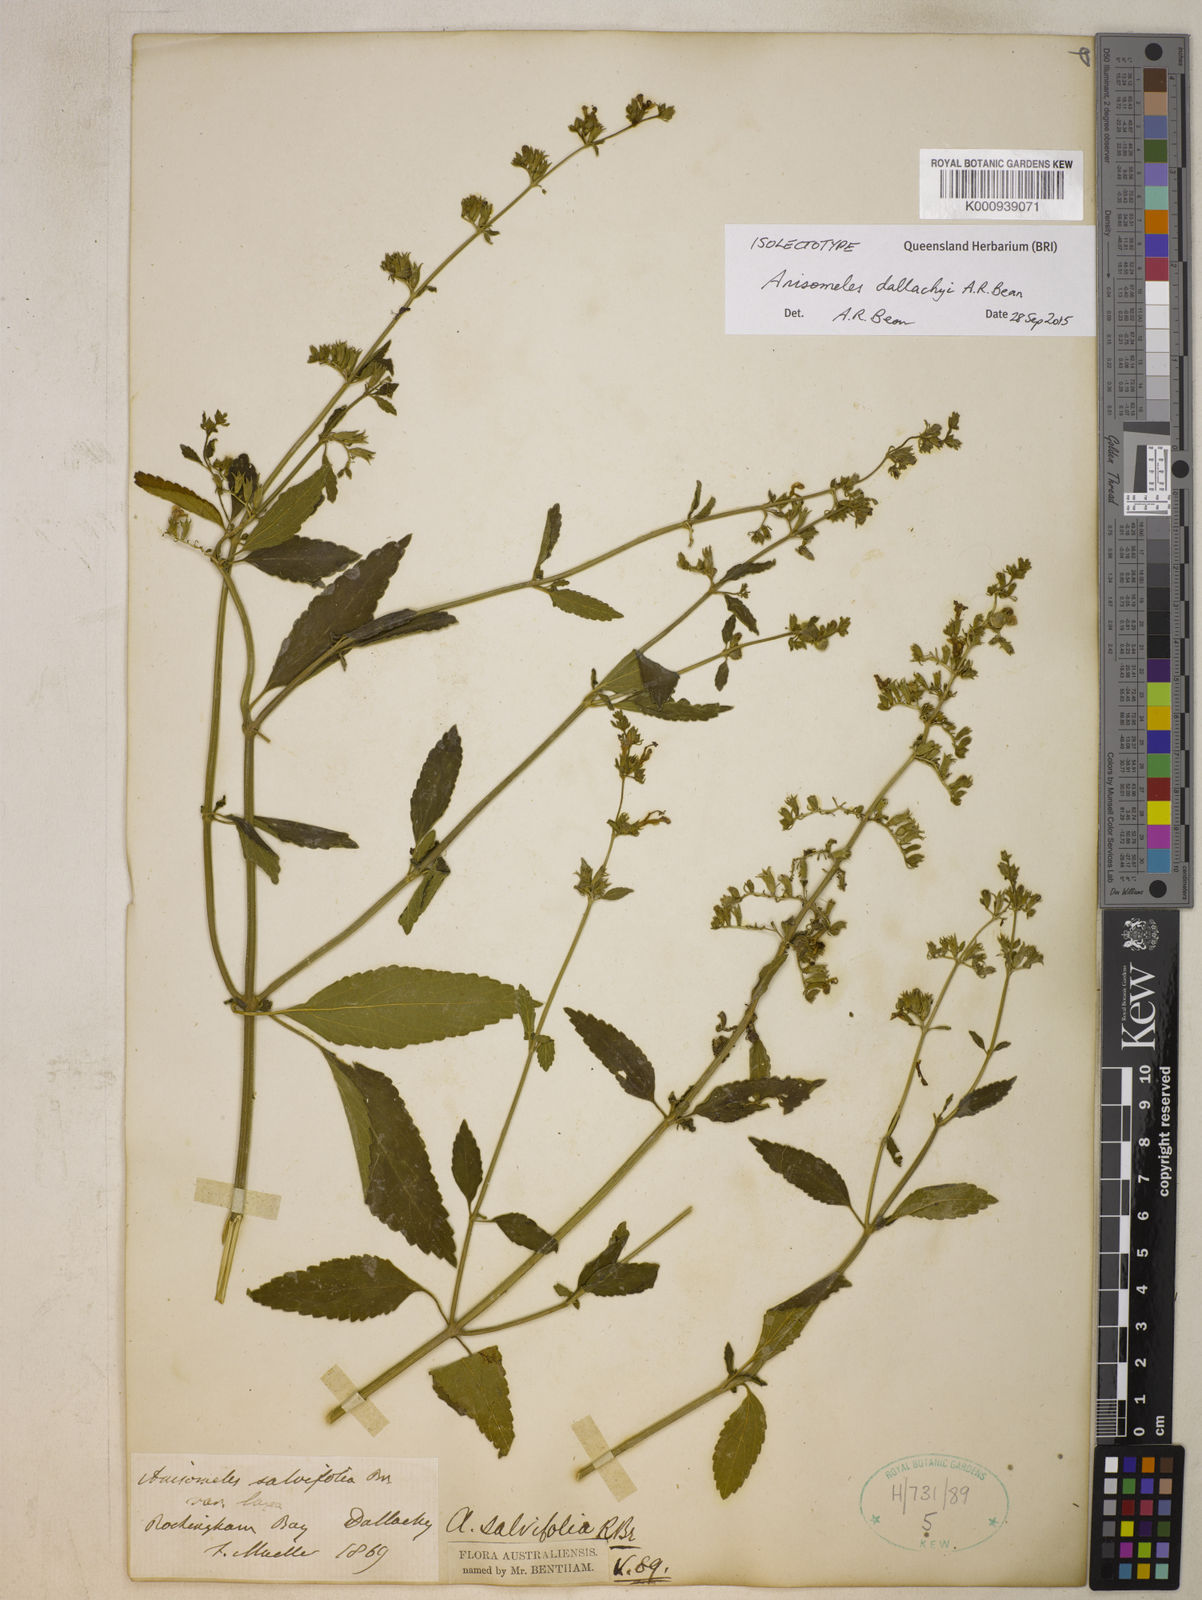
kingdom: Plantae
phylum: Tracheophyta
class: Magnoliopsida
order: Lamiales
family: Lamiaceae
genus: Anisomeles
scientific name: Anisomeles dallachyi
